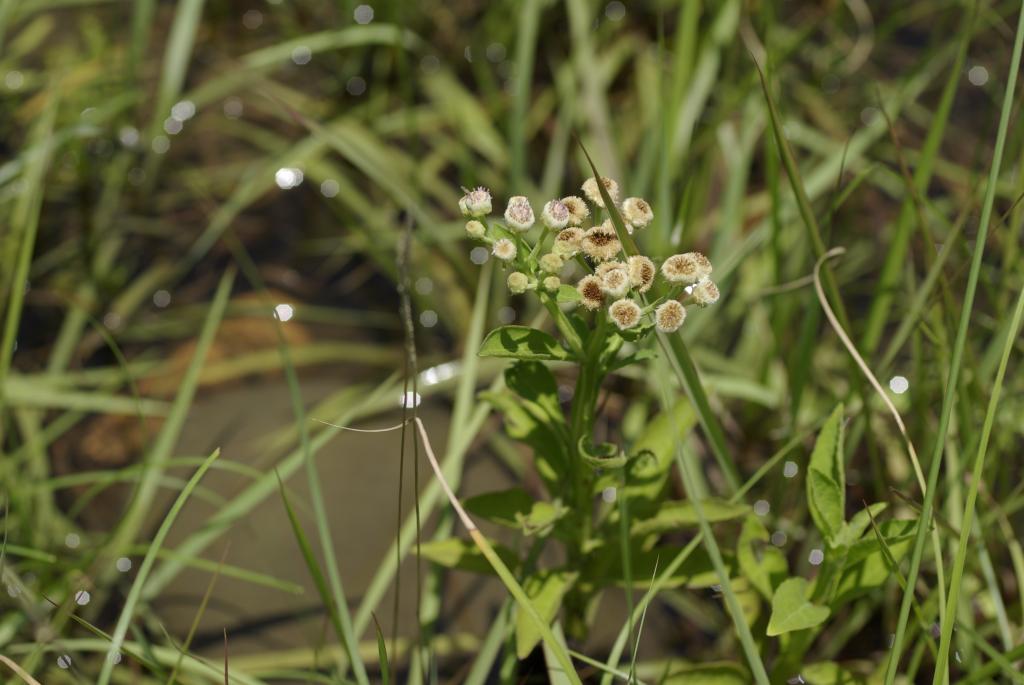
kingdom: Plantae
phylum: Tracheophyta
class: Magnoliopsida
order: Asterales
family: Asteraceae
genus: Pluchea
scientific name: Pluchea sagittalis
